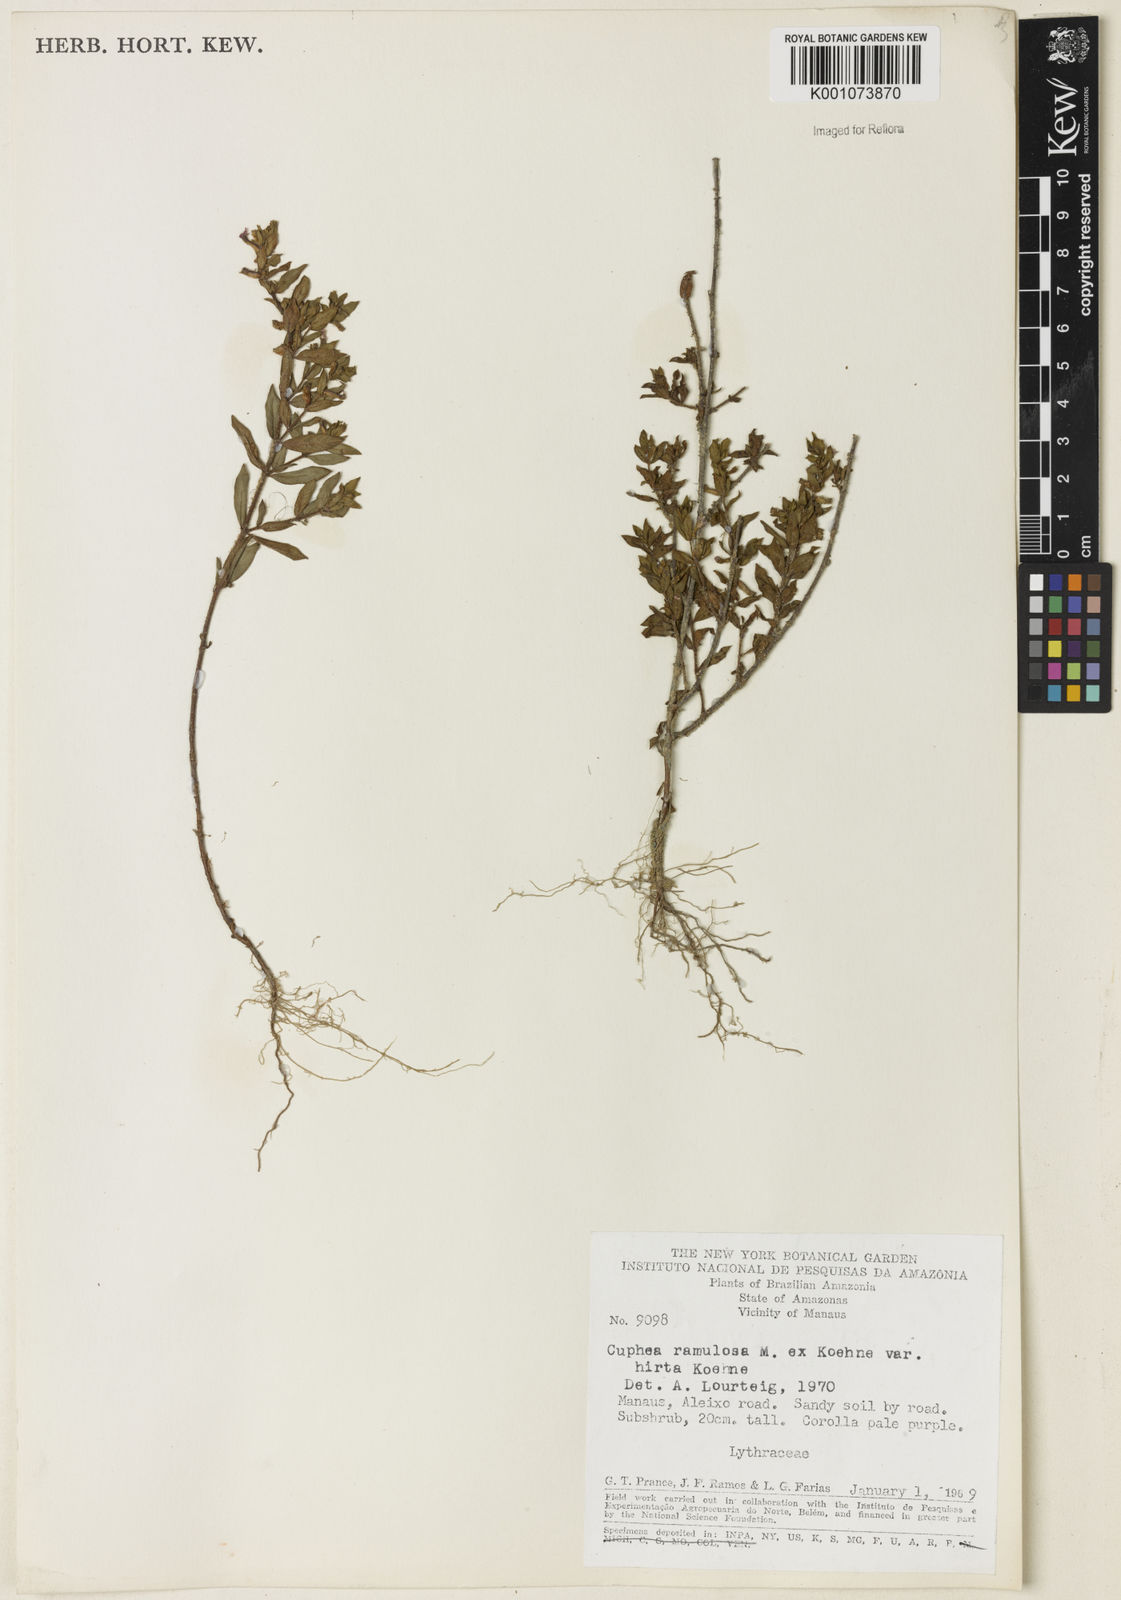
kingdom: Plantae
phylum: Tracheophyta
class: Magnoliopsida
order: Myrtales
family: Lythraceae
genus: Cuphea
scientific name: Cuphea antisyphilitica
